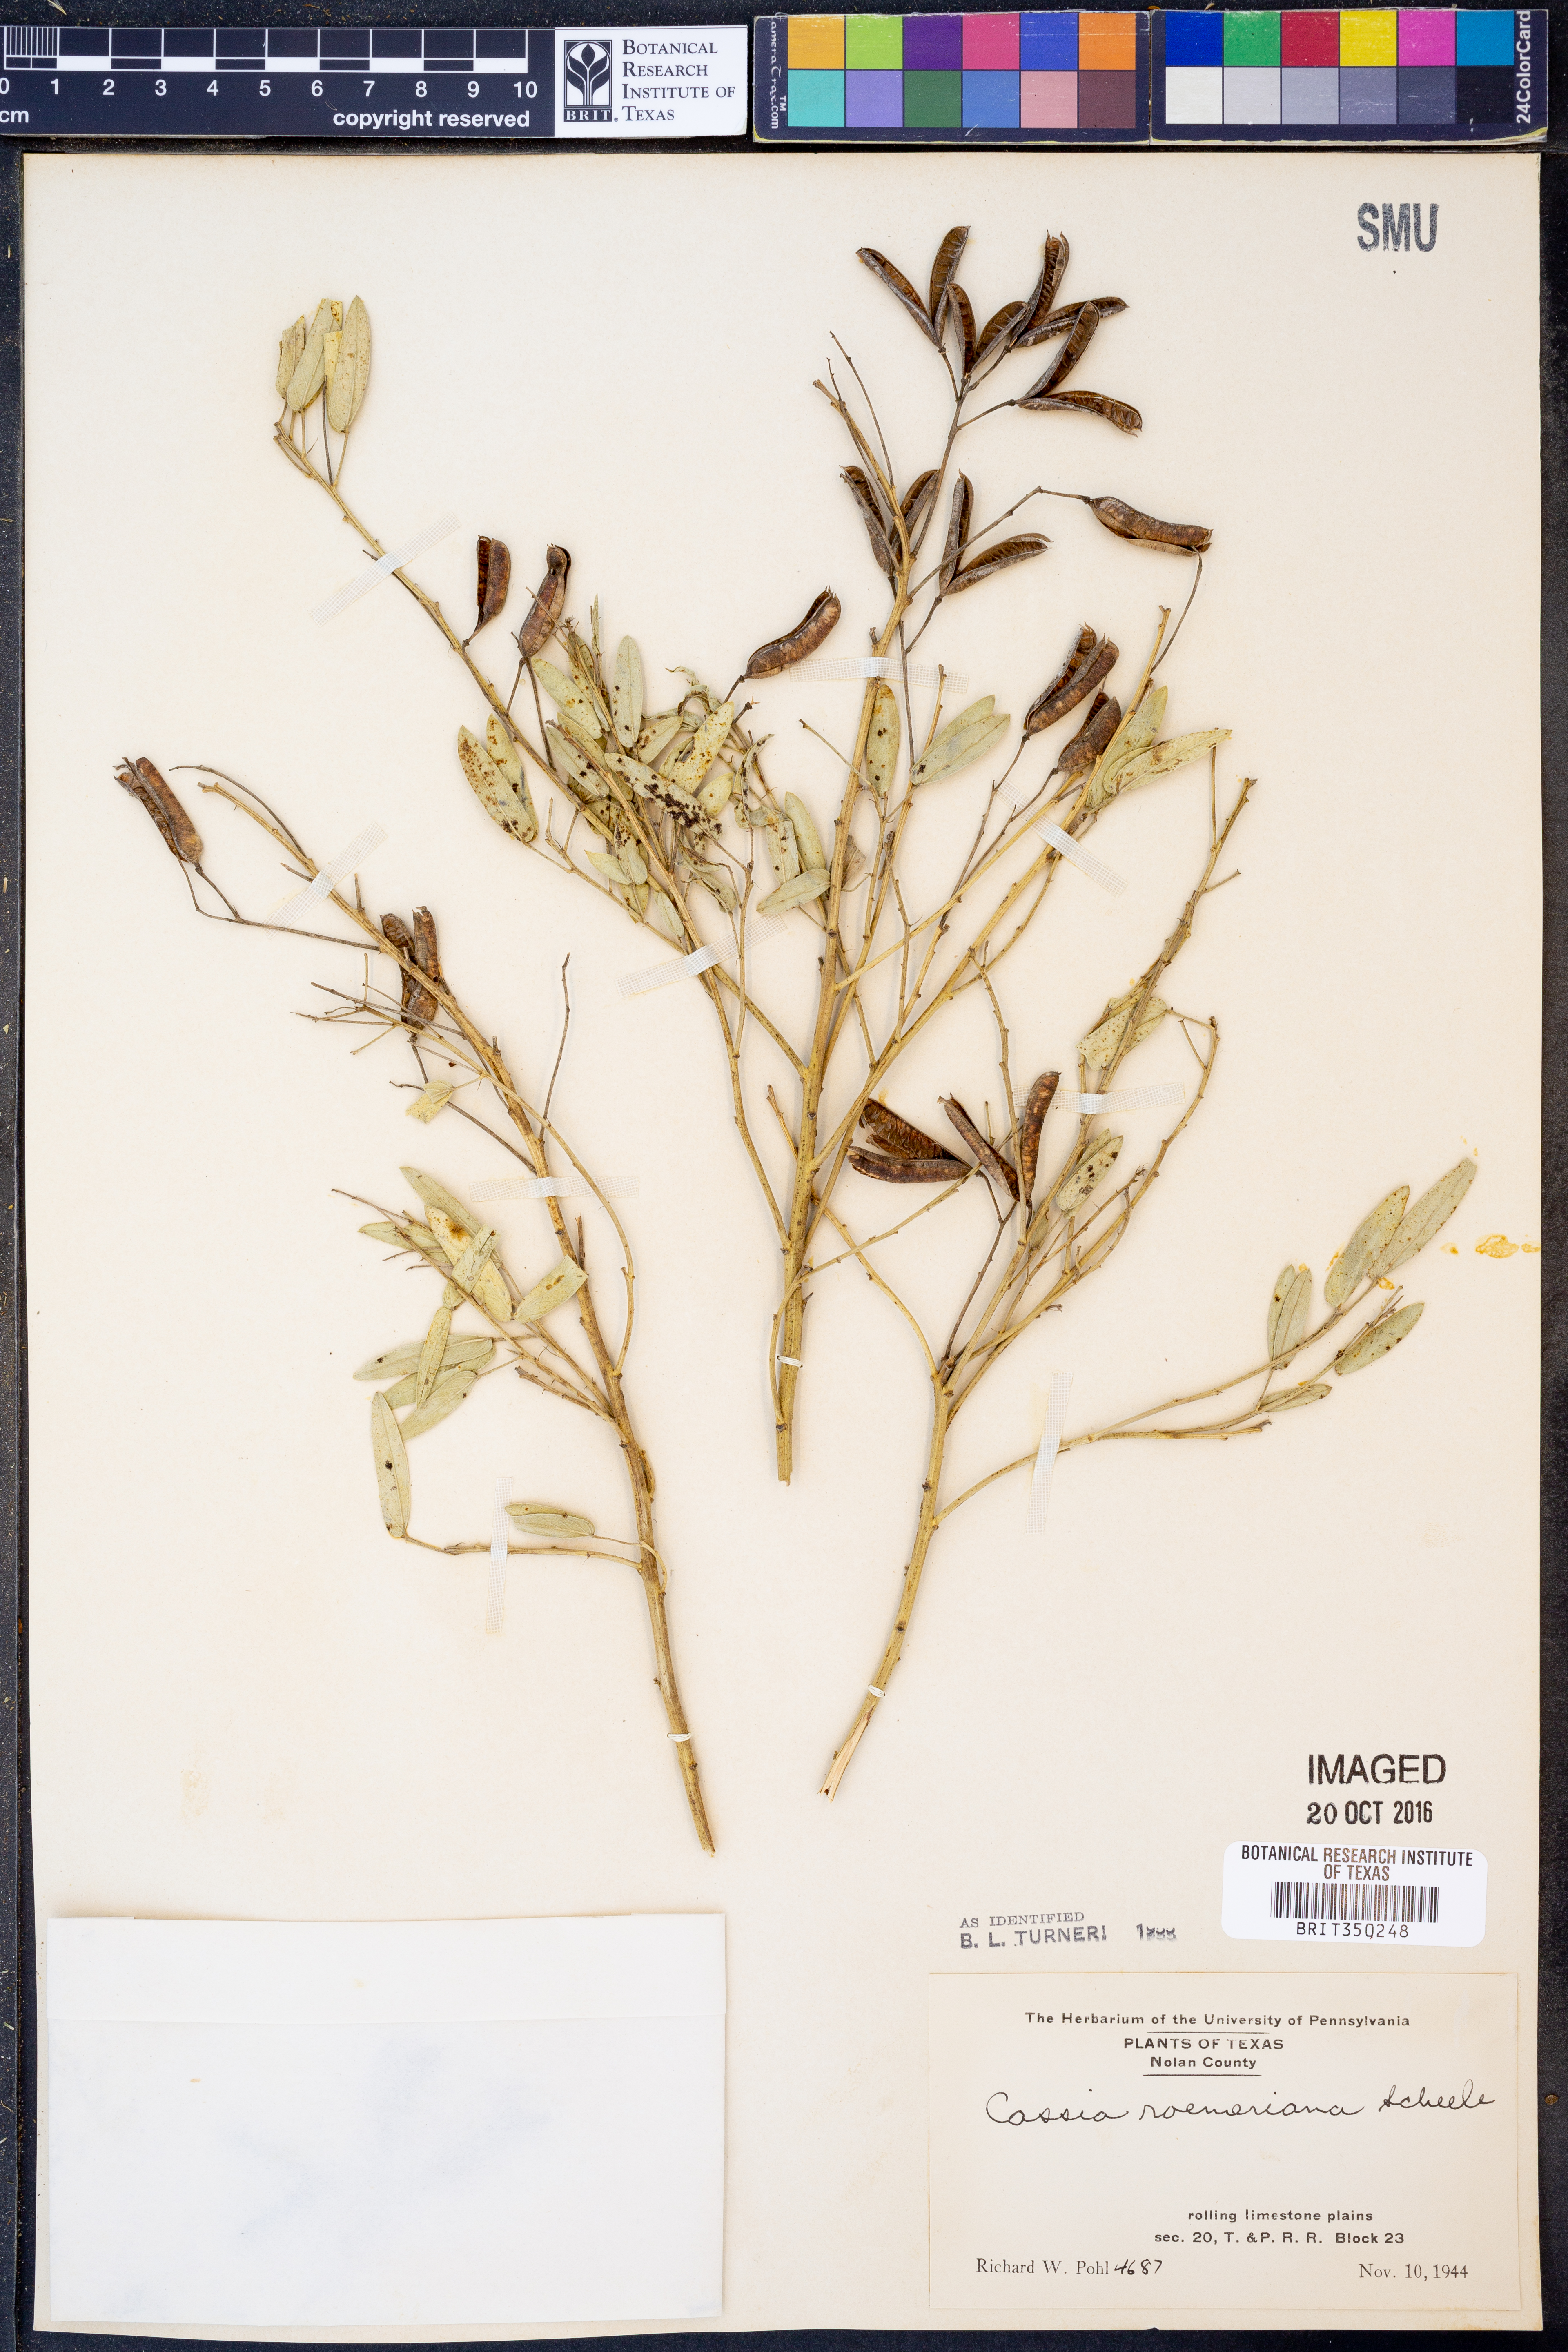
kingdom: Plantae
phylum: Tracheophyta
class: Magnoliopsida
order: Fabales
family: Fabaceae
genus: Senna
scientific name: Senna roemeriana
